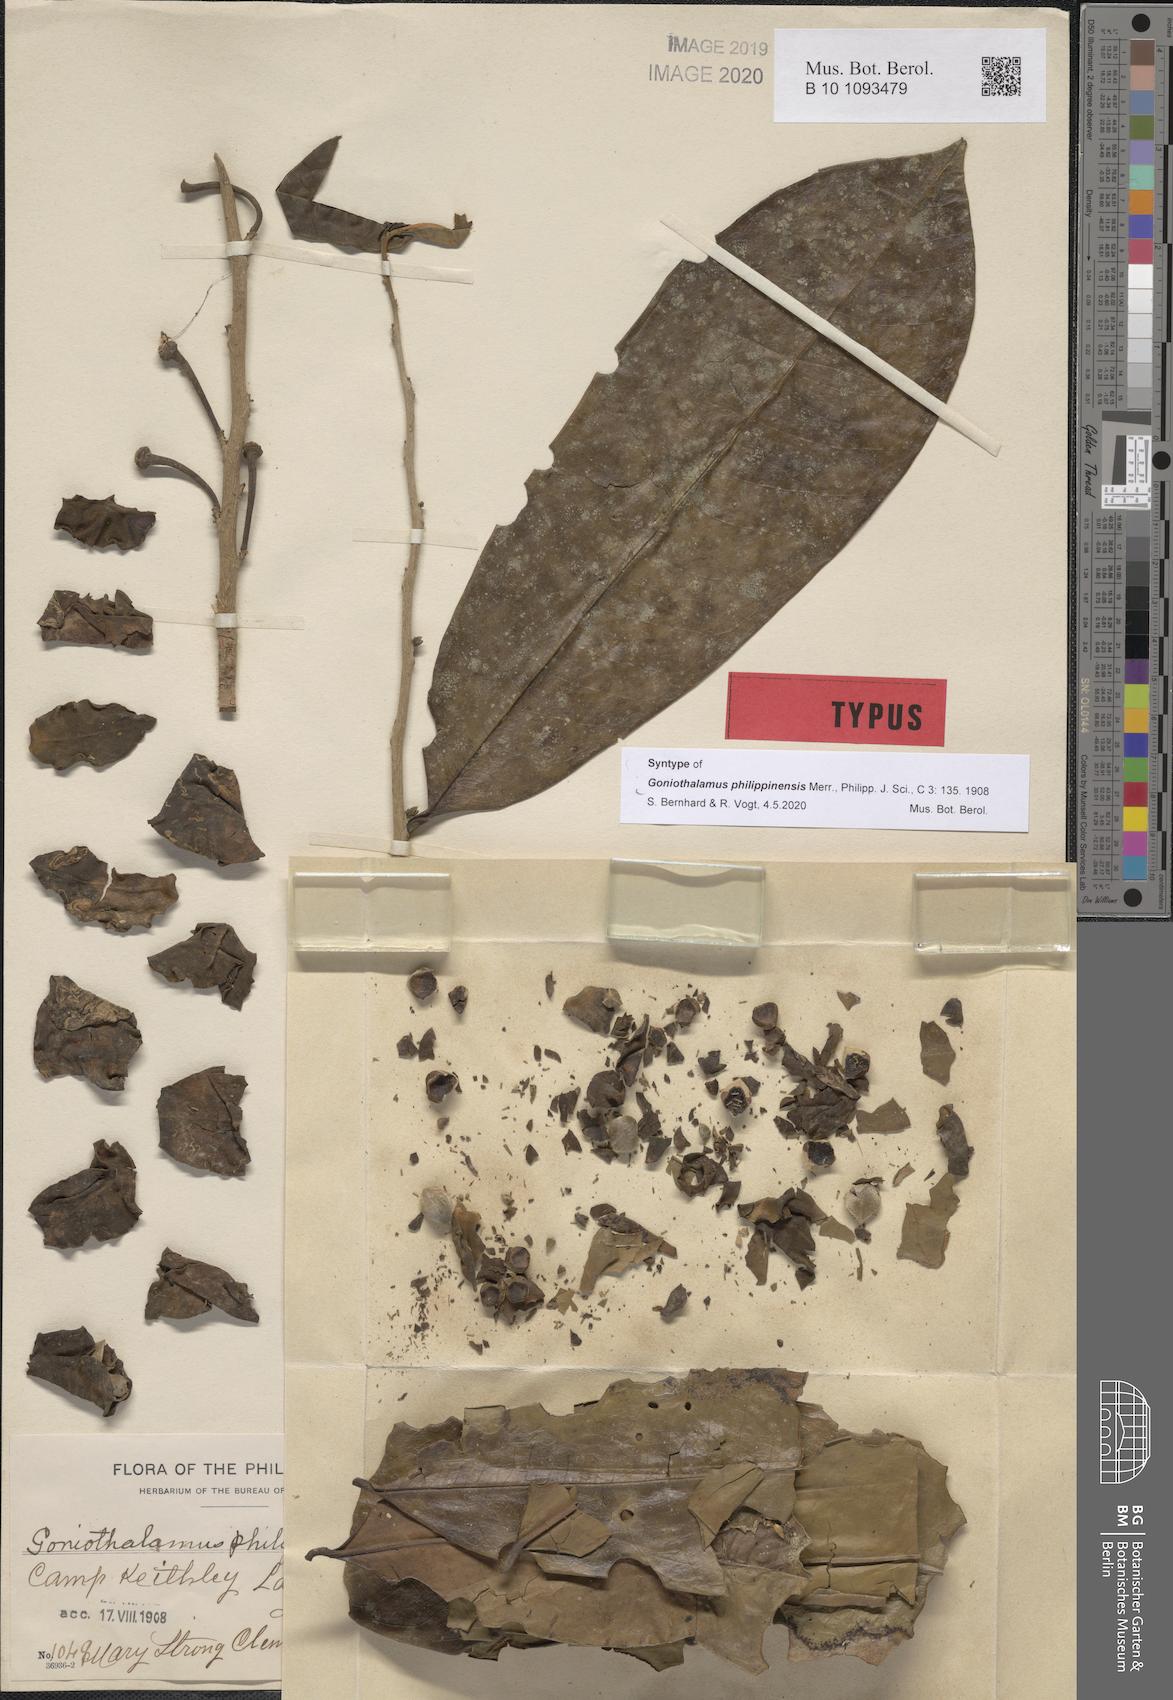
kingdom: Plantae
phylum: Tracheophyta
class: Magnoliopsida
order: Magnoliales
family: Annonaceae
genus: Goniothalamus
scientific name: Goniothalamus philippinensis
